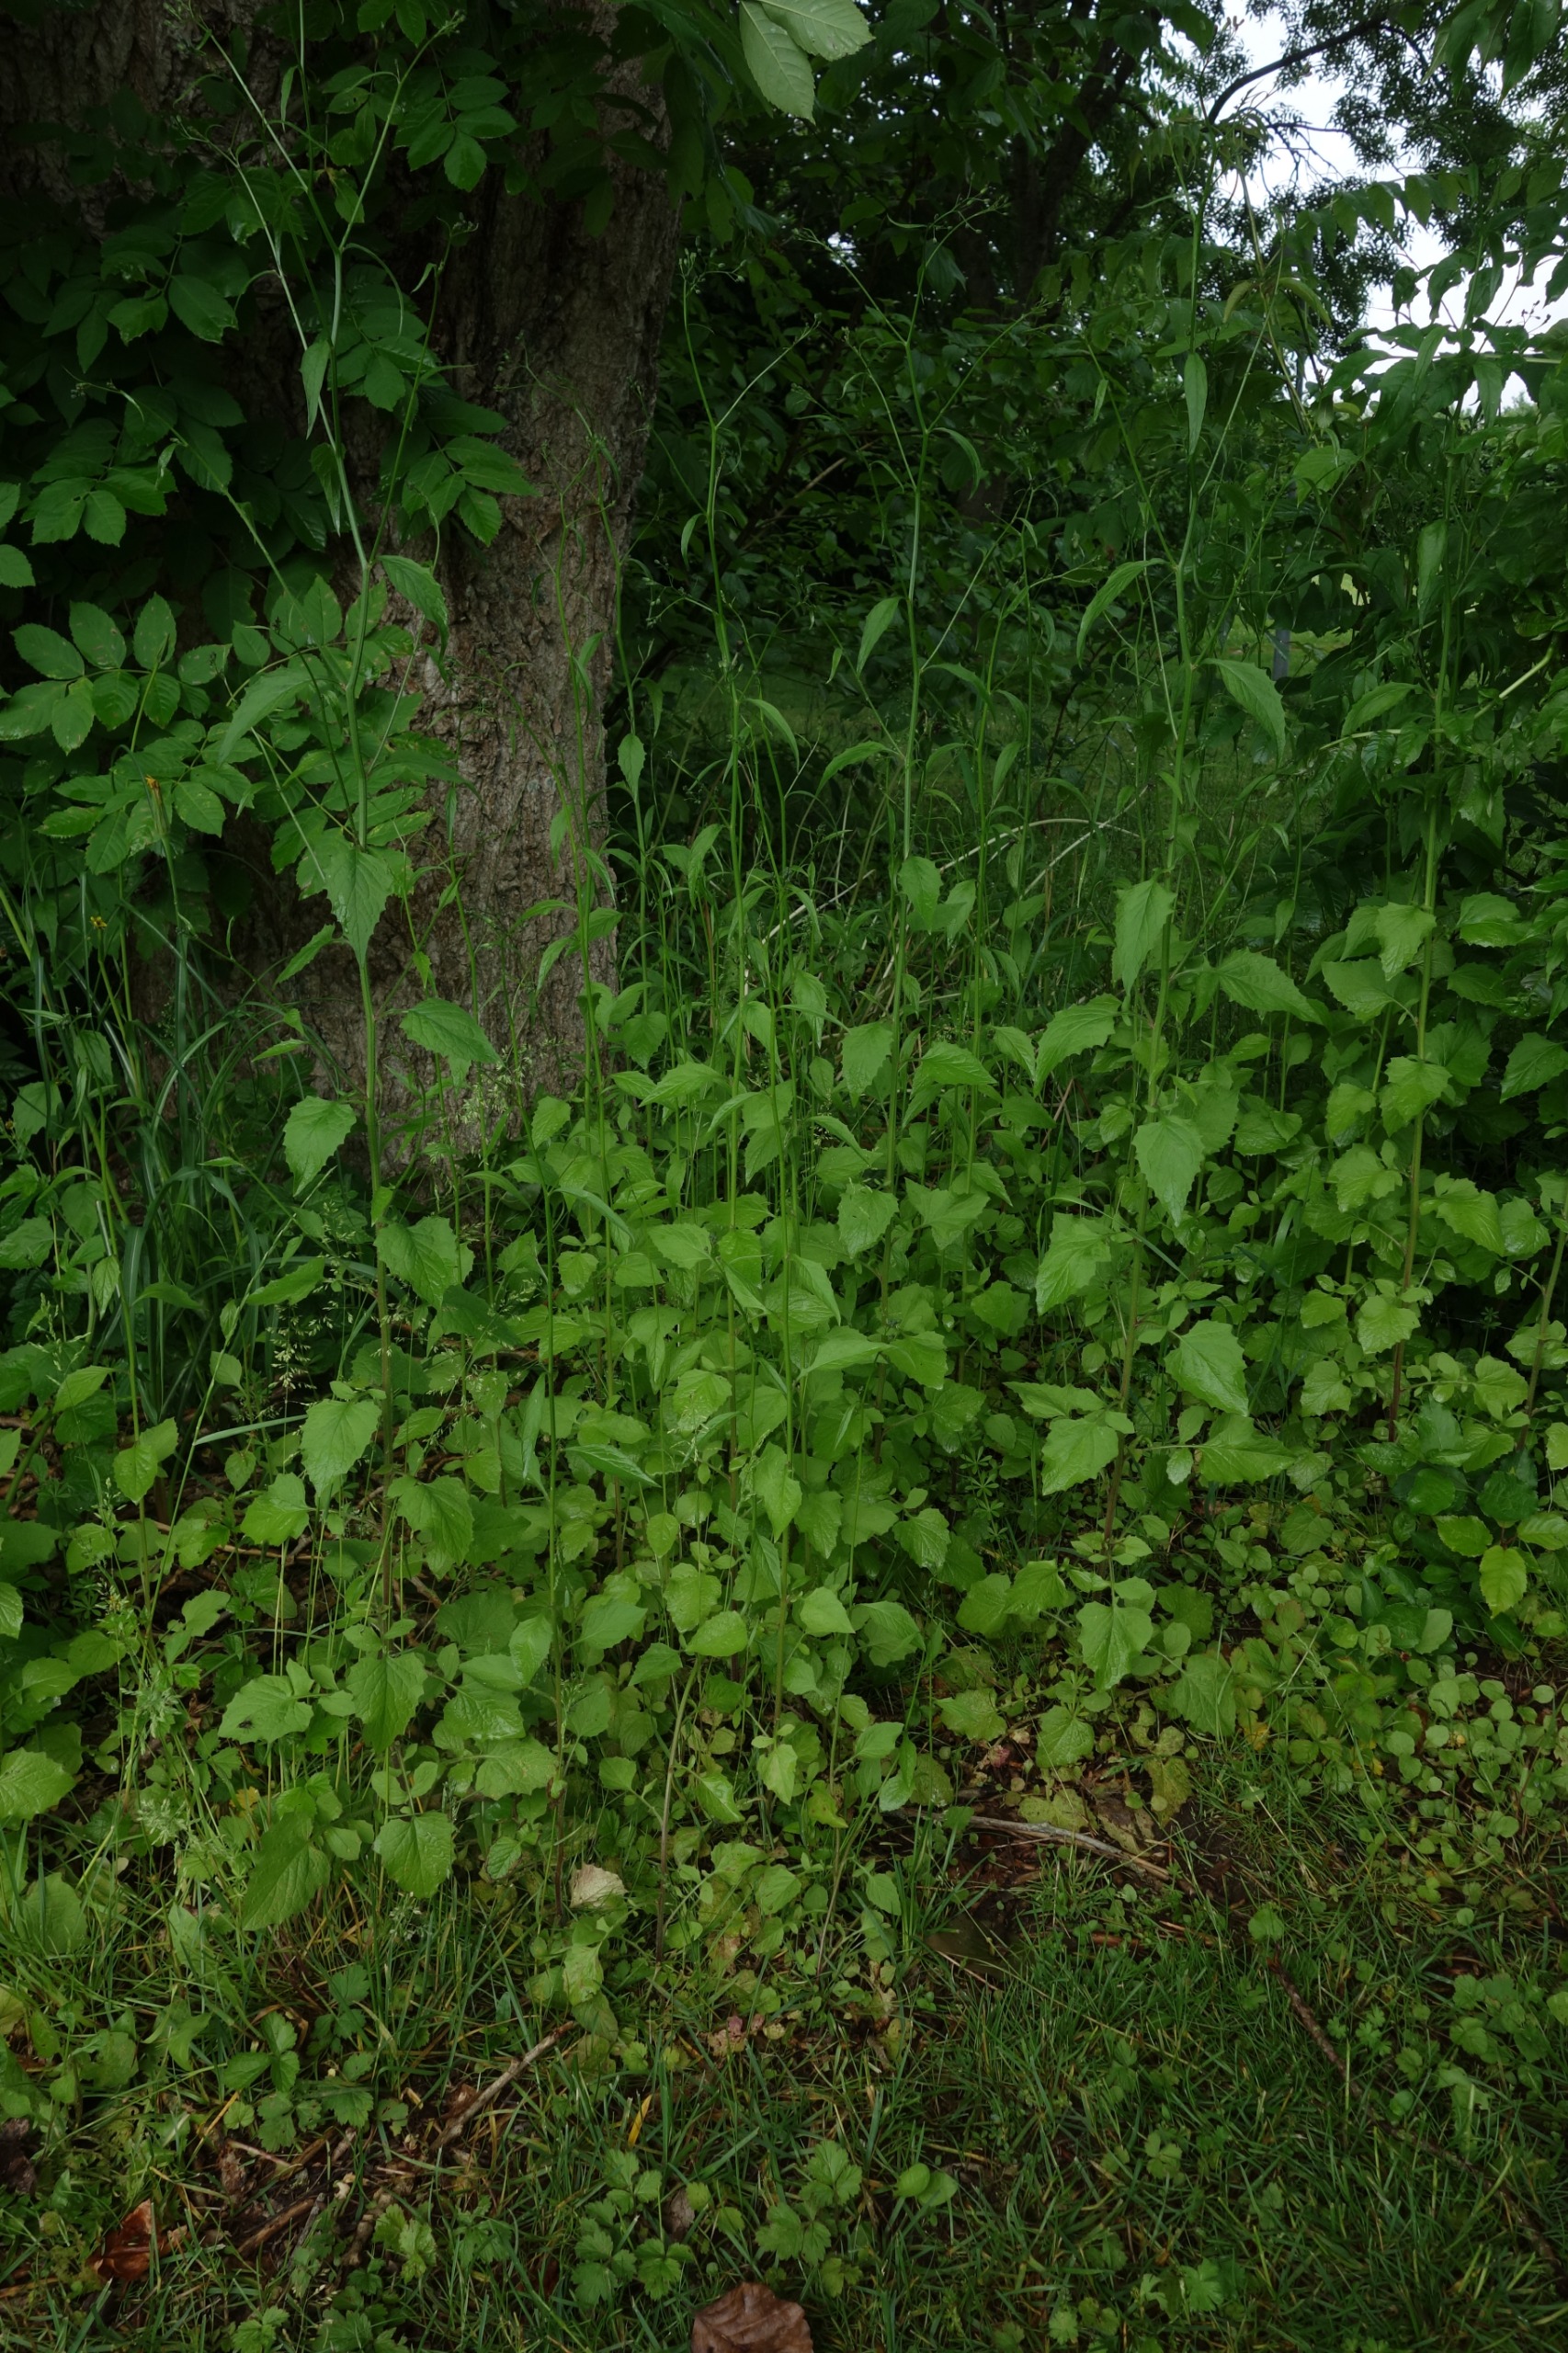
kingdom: Plantae
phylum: Tracheophyta
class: Magnoliopsida
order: Asterales
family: Asteraceae
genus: Lapsana
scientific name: Lapsana communis
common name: Haremad
